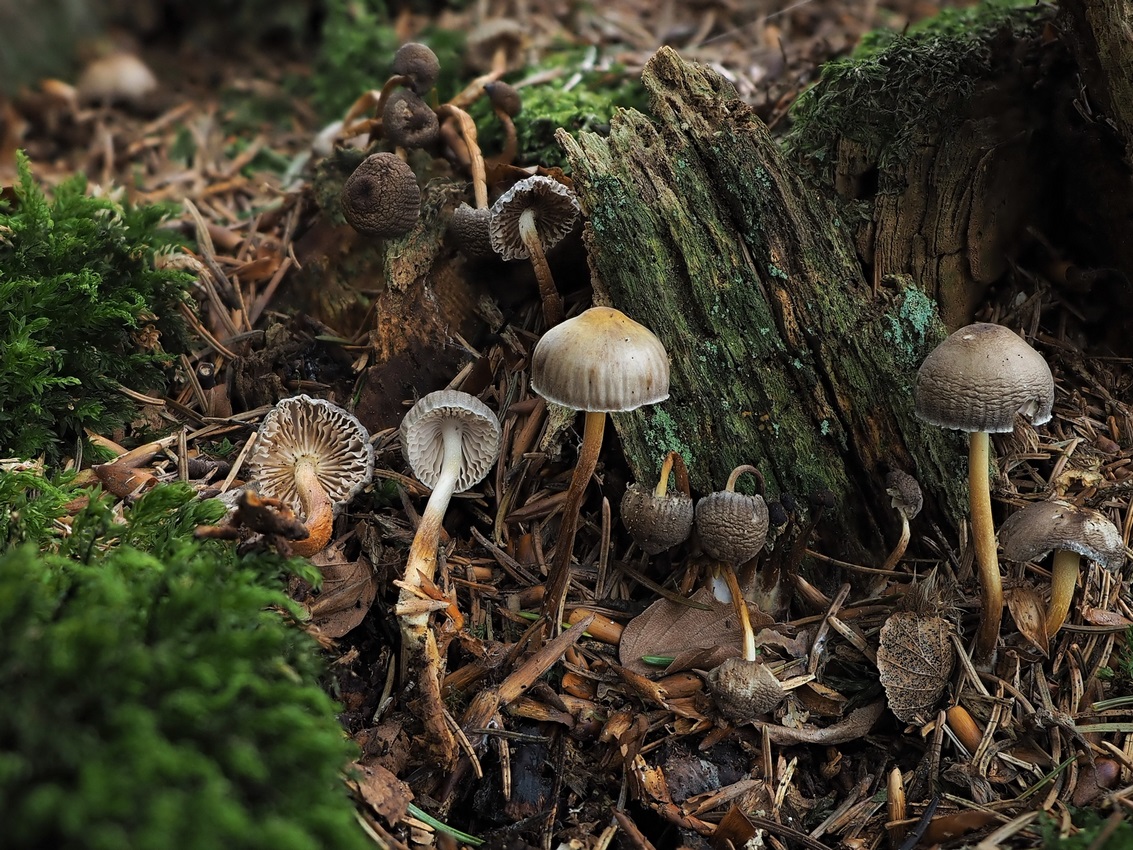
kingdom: Fungi
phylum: Basidiomycota
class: Agaricomycetes
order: Agaricales
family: Mycenaceae
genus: Mycena
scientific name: Mycena inclinata
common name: nikkende huesvamp
